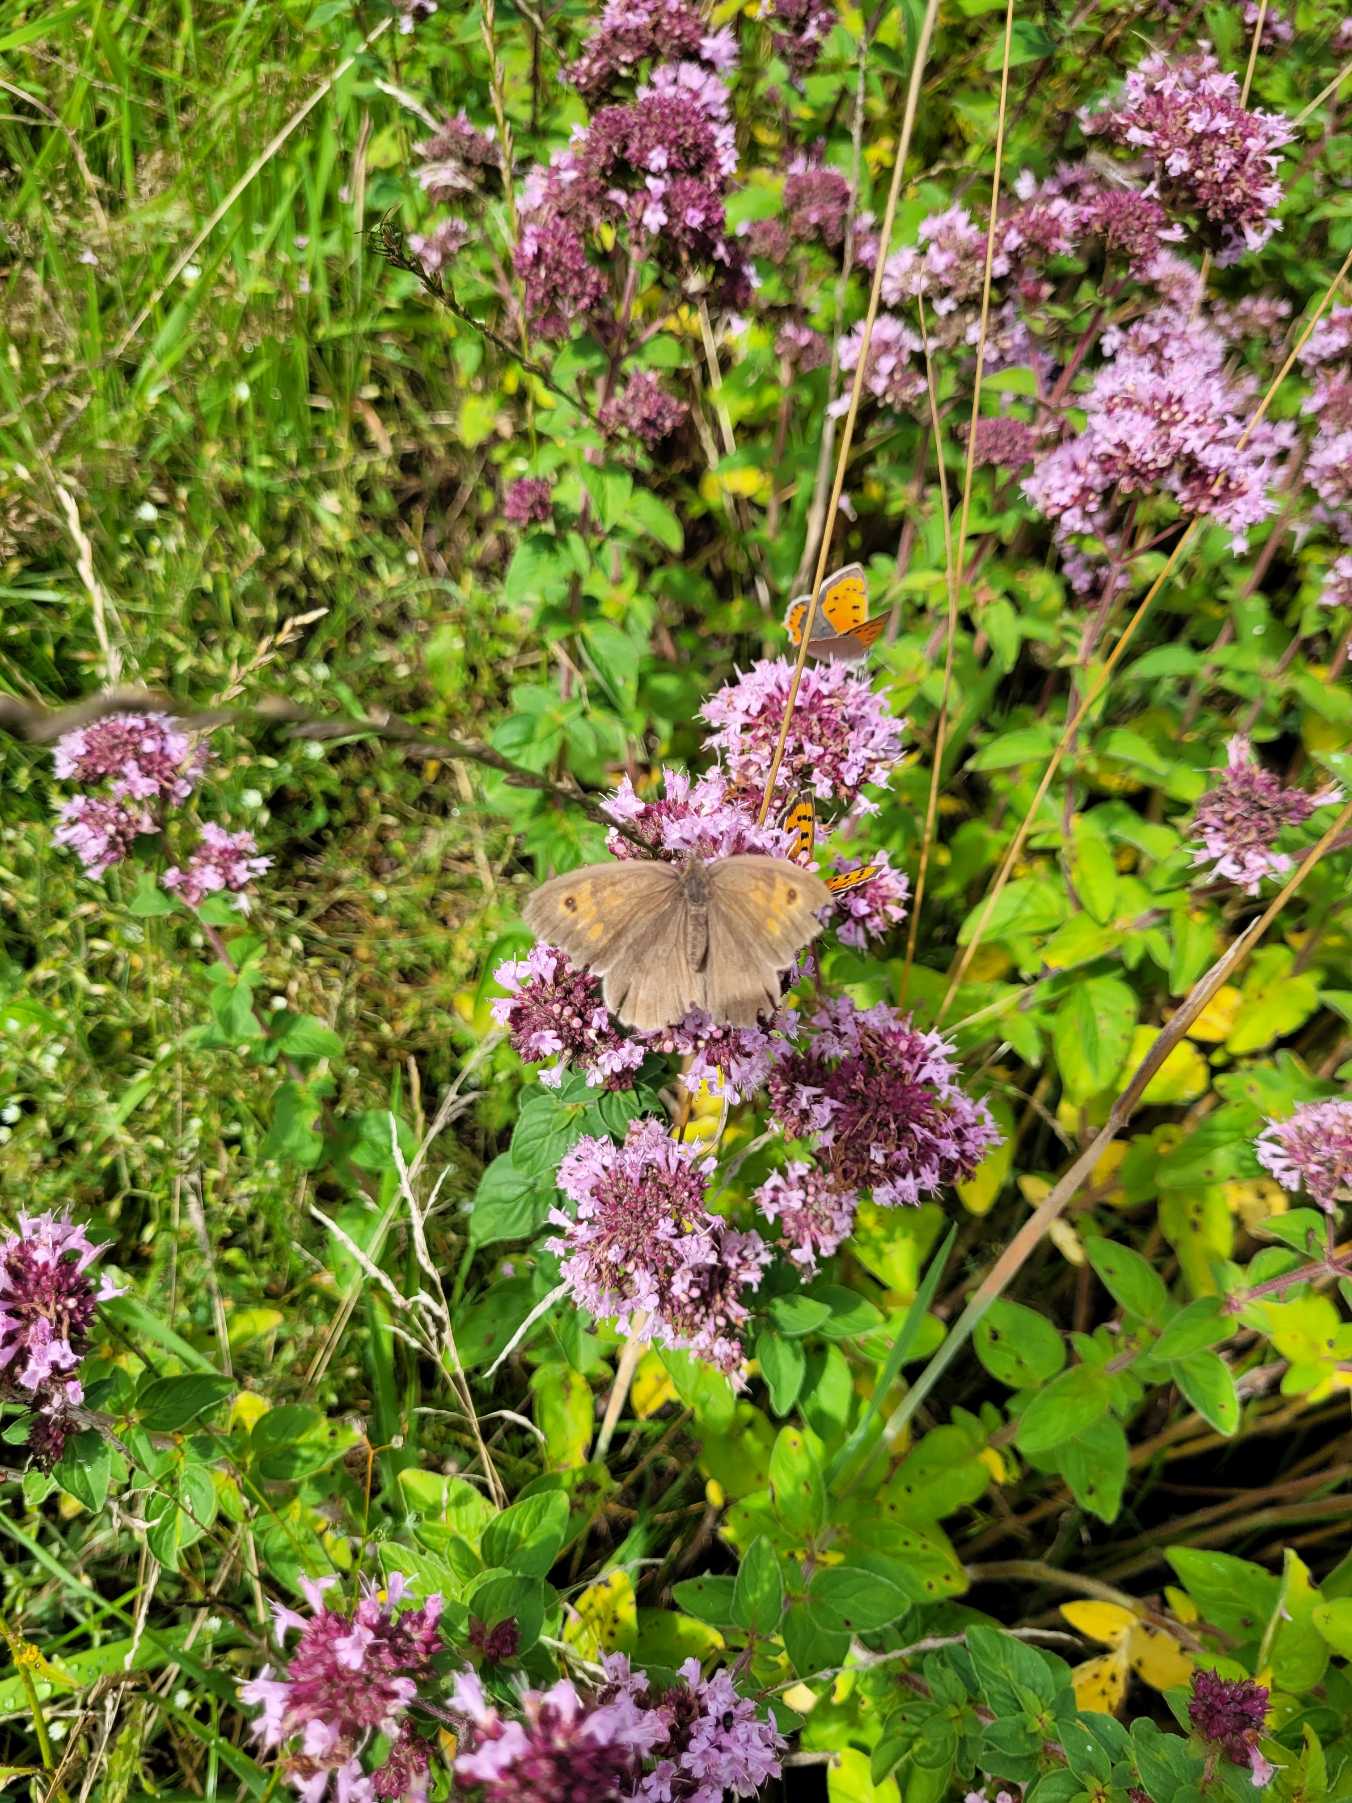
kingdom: Animalia
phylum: Arthropoda
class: Insecta
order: Lepidoptera
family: Nymphalidae
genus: Maniola
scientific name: Maniola jurtina
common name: Græsrandøje
